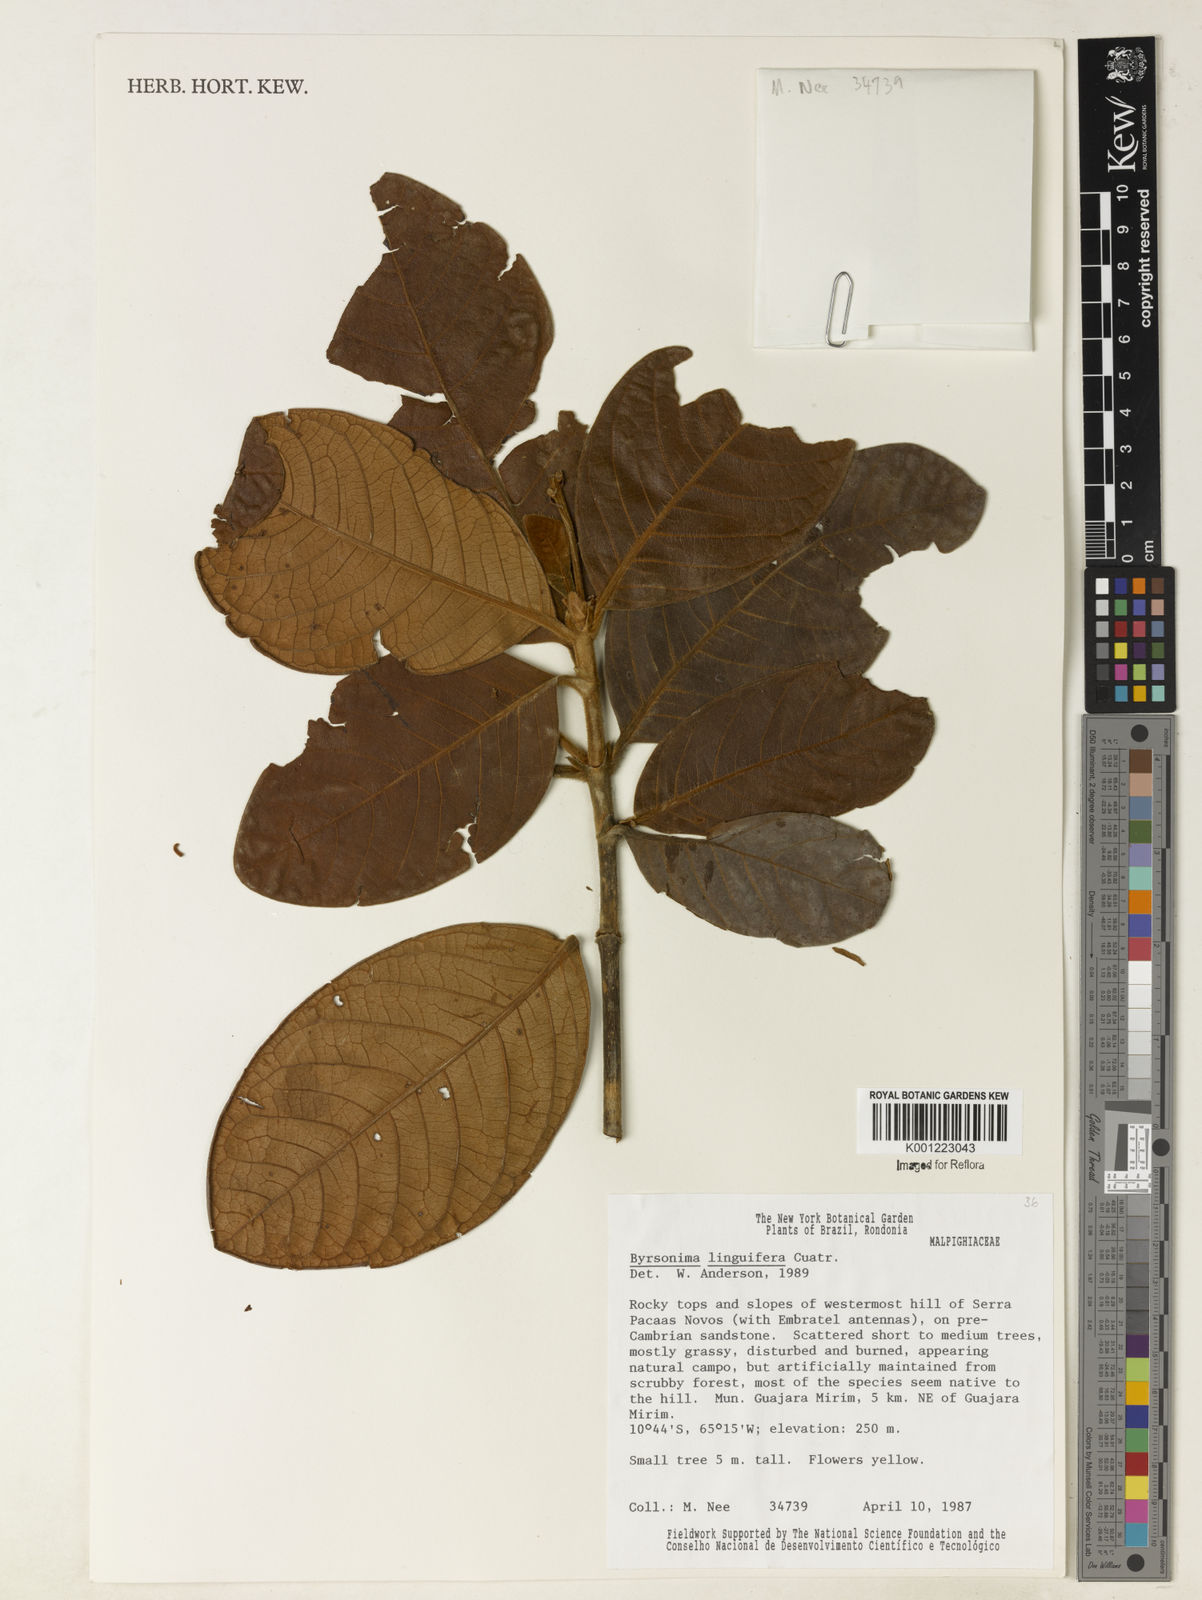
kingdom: Plantae
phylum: Tracheophyta
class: Magnoliopsida
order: Malpighiales
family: Malpighiaceae
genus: Byrsonima
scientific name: Byrsonima linguifera
